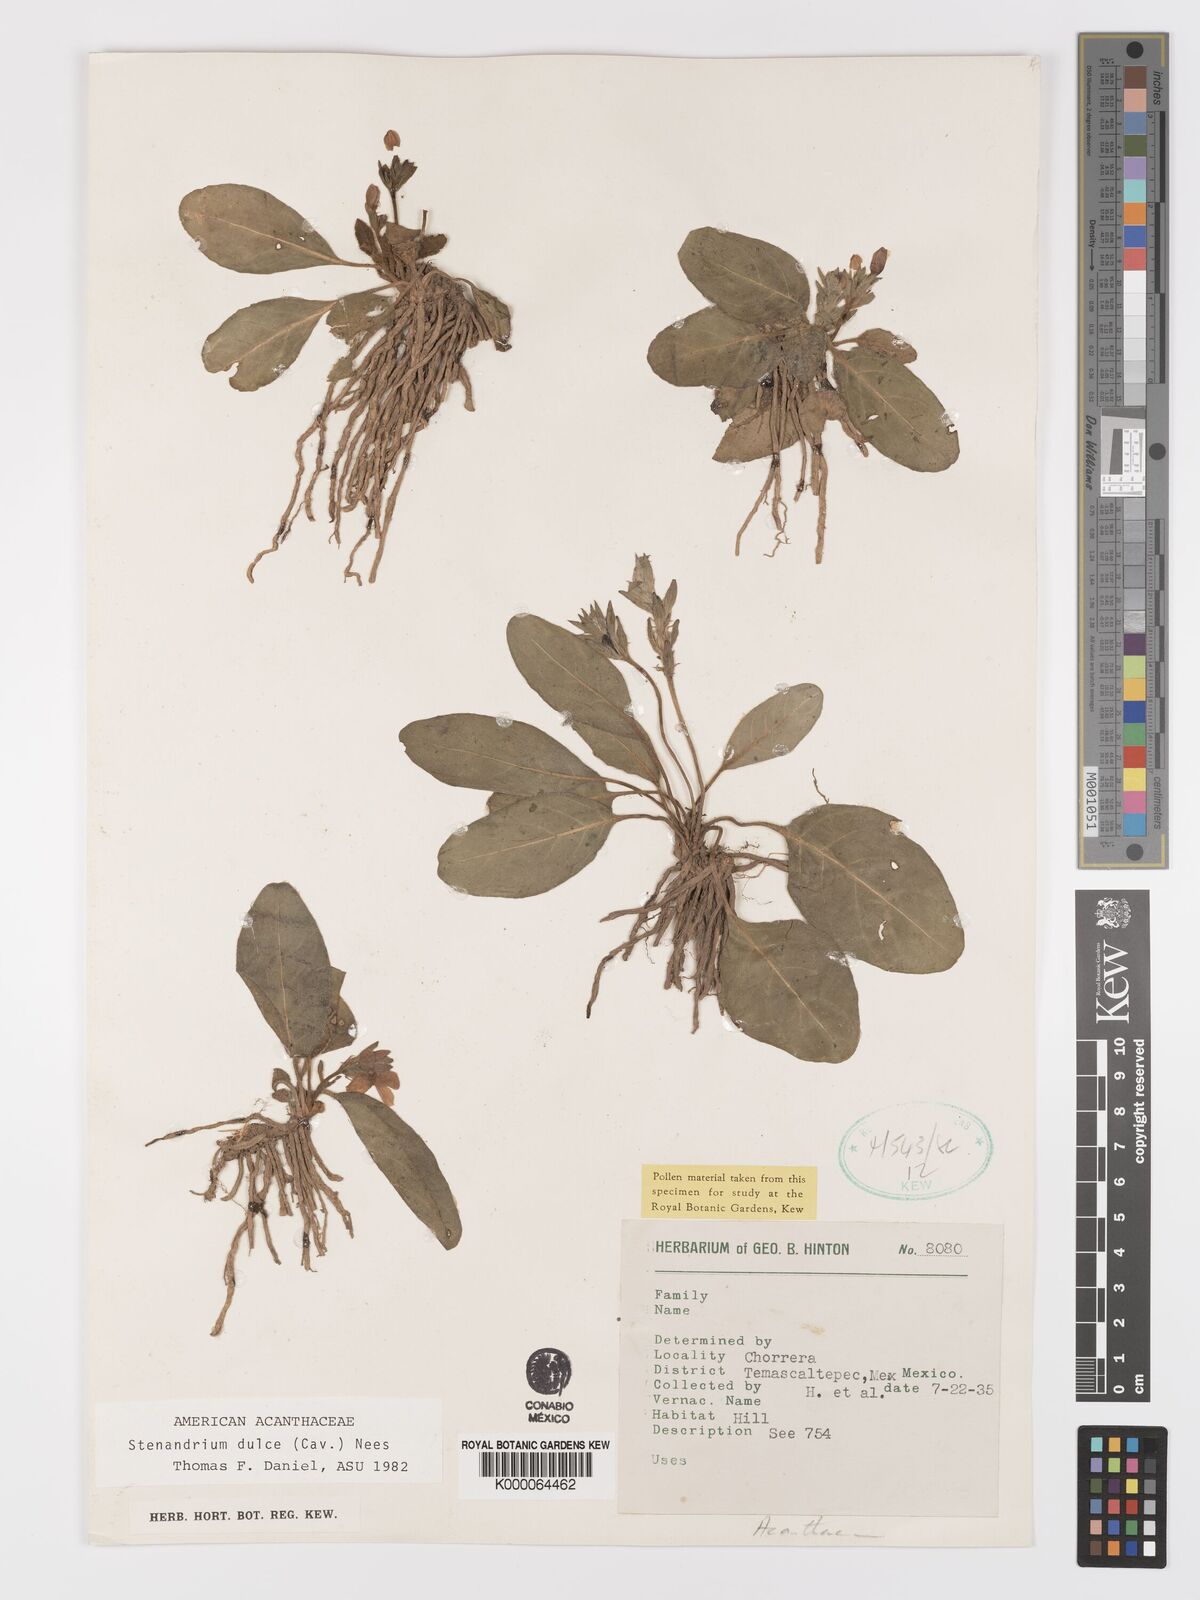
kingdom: Plantae
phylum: Tracheophyta
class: Magnoliopsida
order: Lamiales
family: Acanthaceae
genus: Stenandrium
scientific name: Stenandrium dulce
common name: Pinklet
